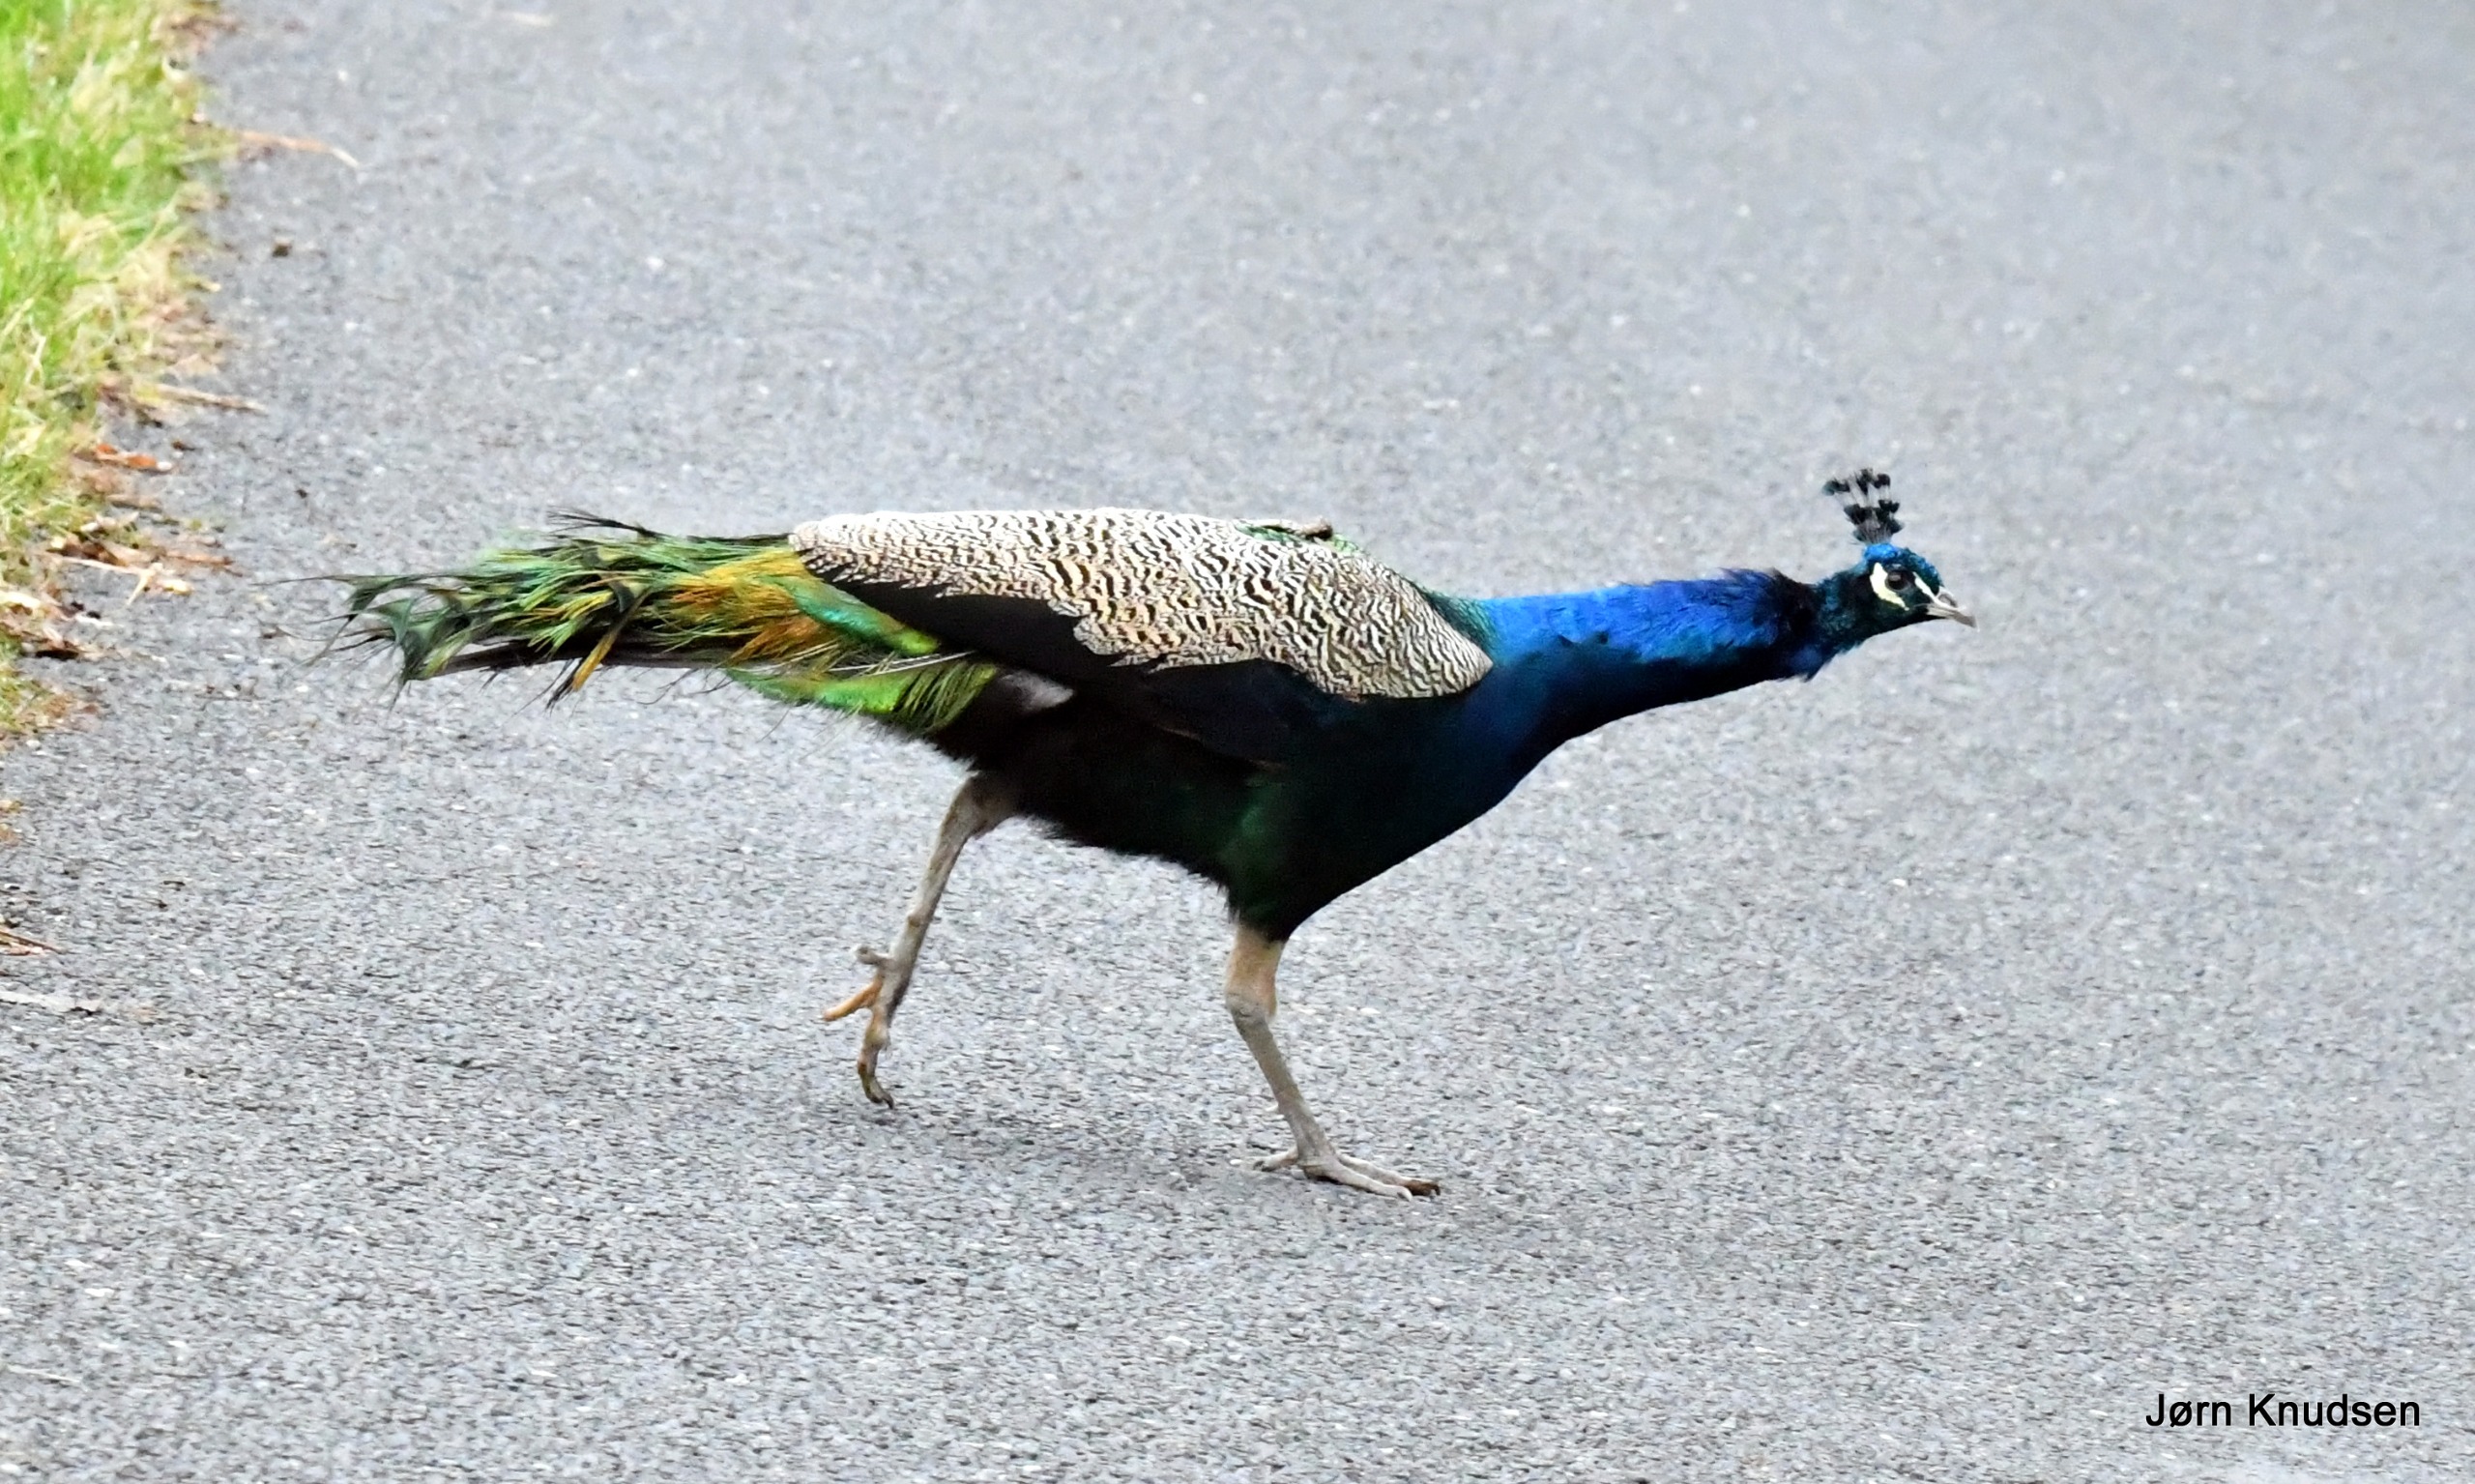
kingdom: Animalia
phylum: Chordata
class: Aves
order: Galliformes
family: Phasianidae
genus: Pavo
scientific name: Pavo cristatus
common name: Påfugl
